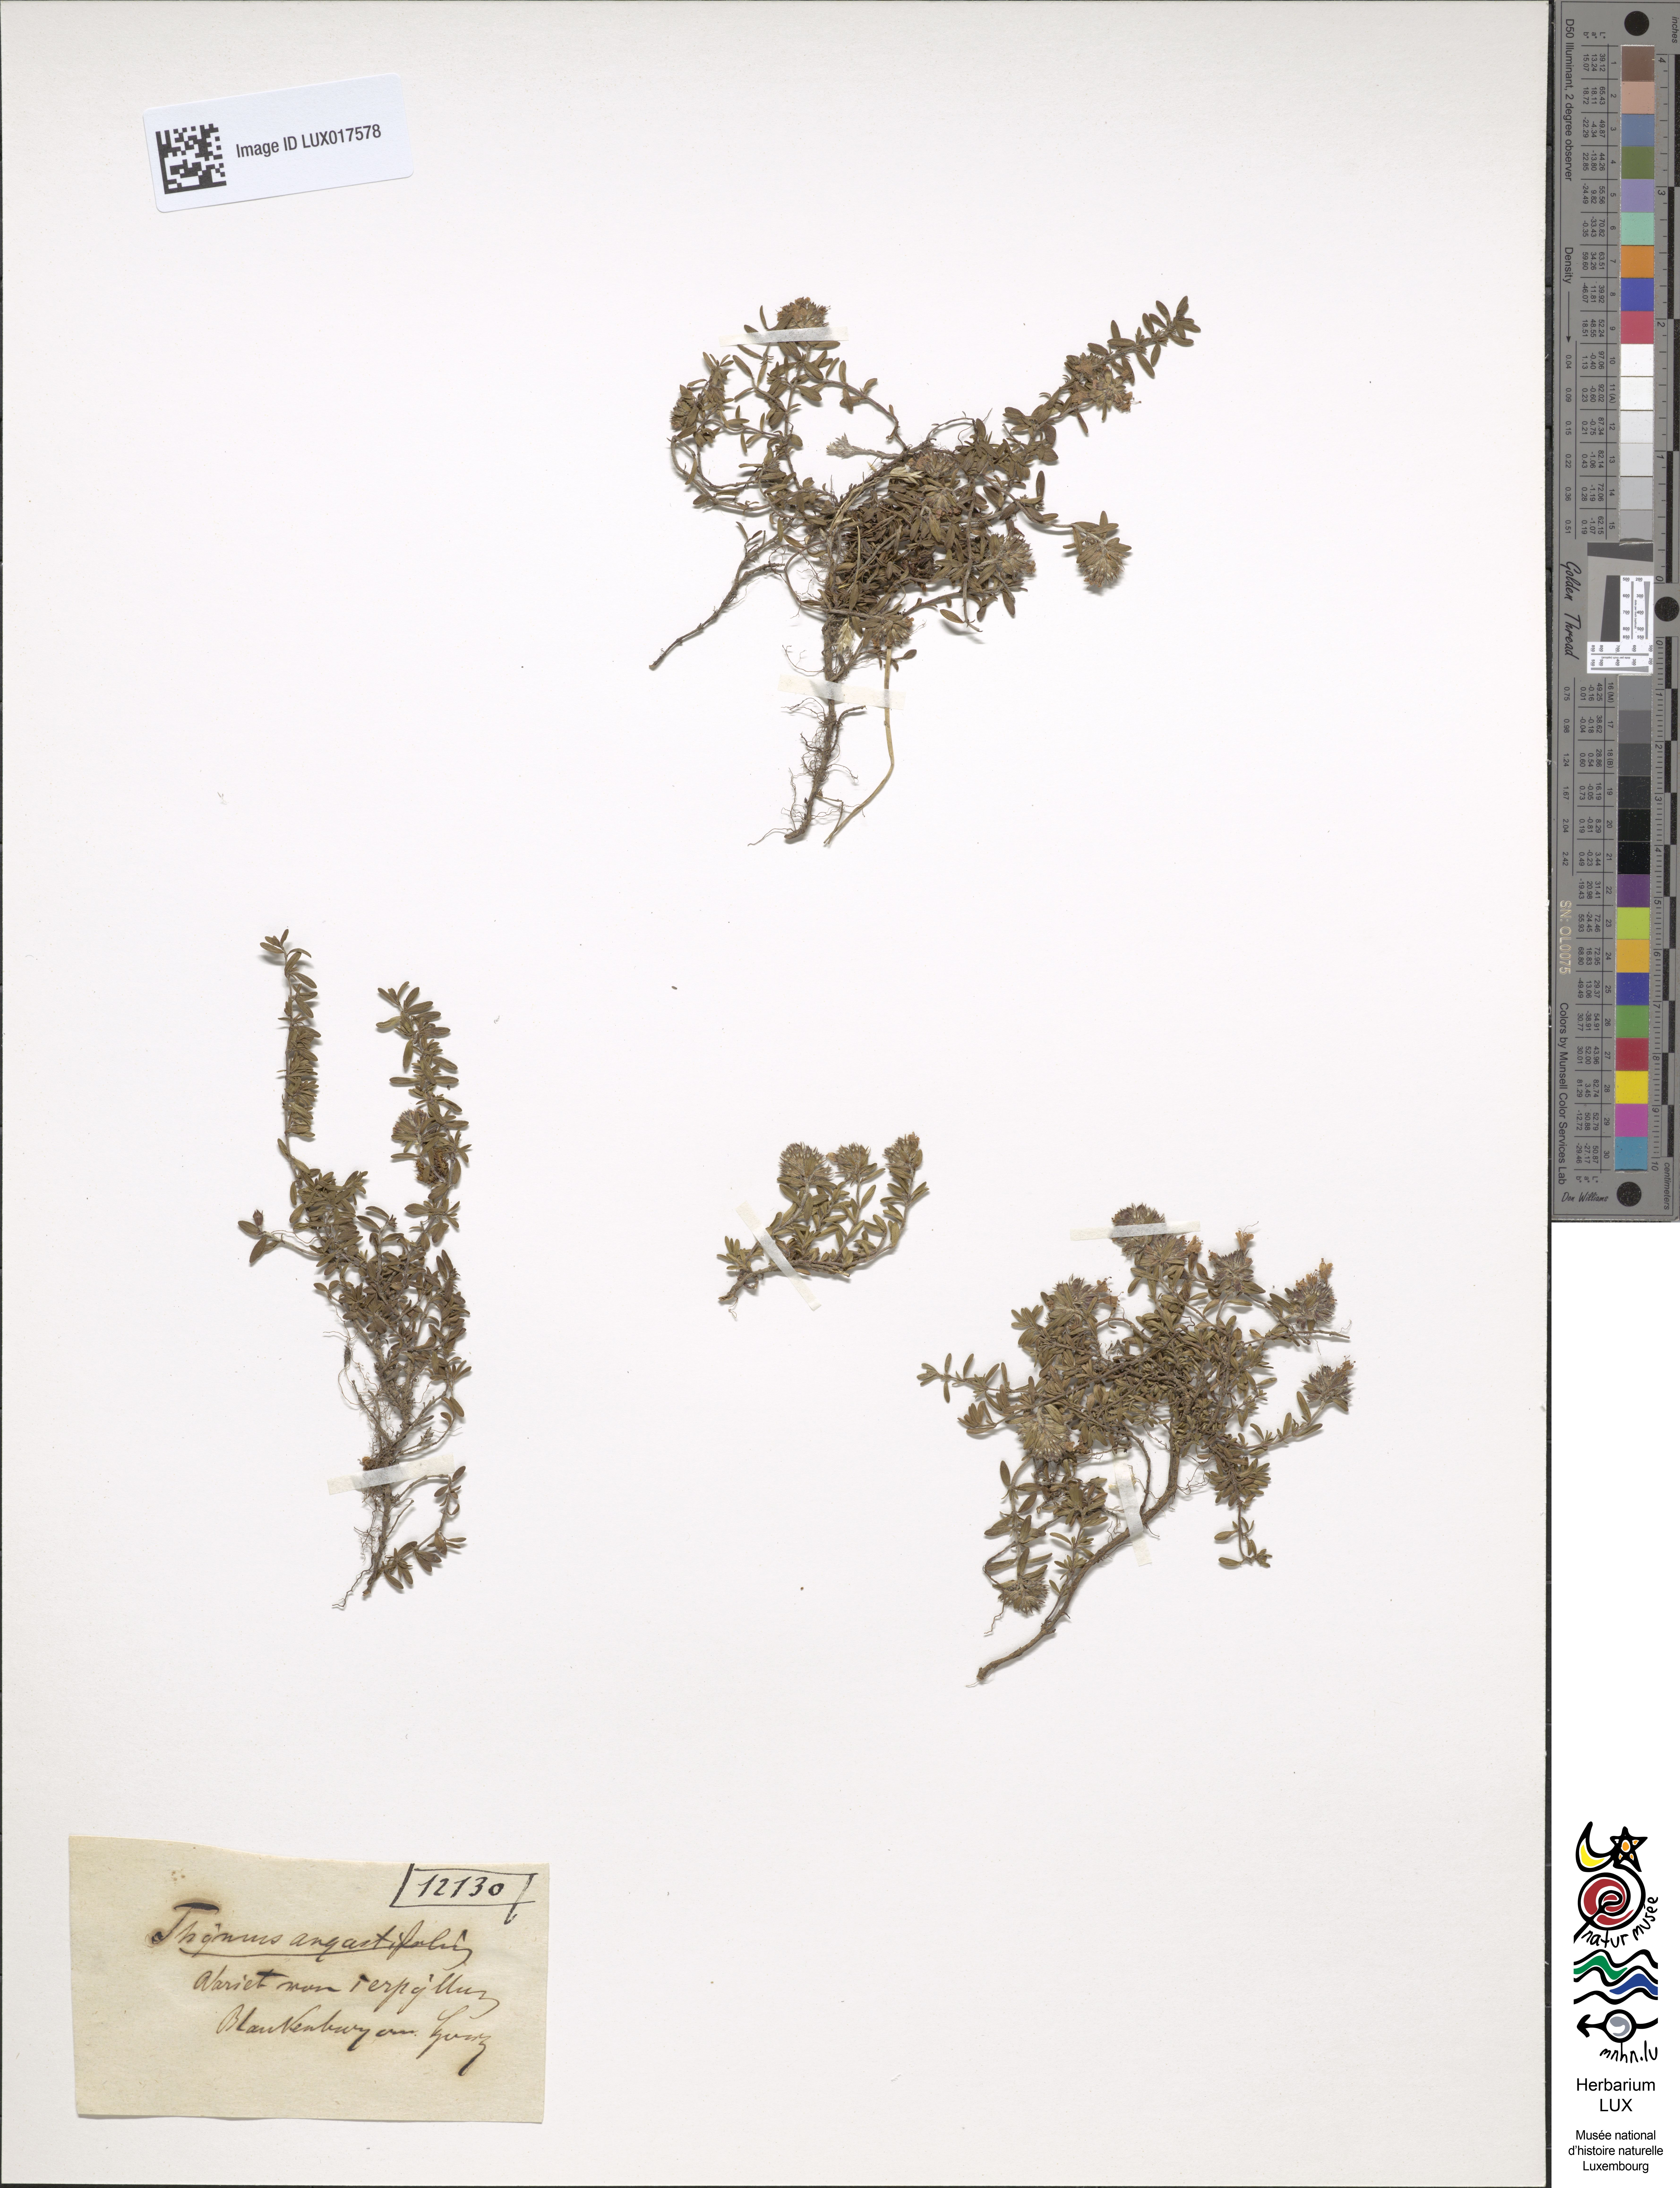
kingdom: Plantae
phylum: Tracheophyta
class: Magnoliopsida
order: Lamiales
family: Lamiaceae
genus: Thymus
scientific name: Thymus serpyllum
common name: Breckland thyme
